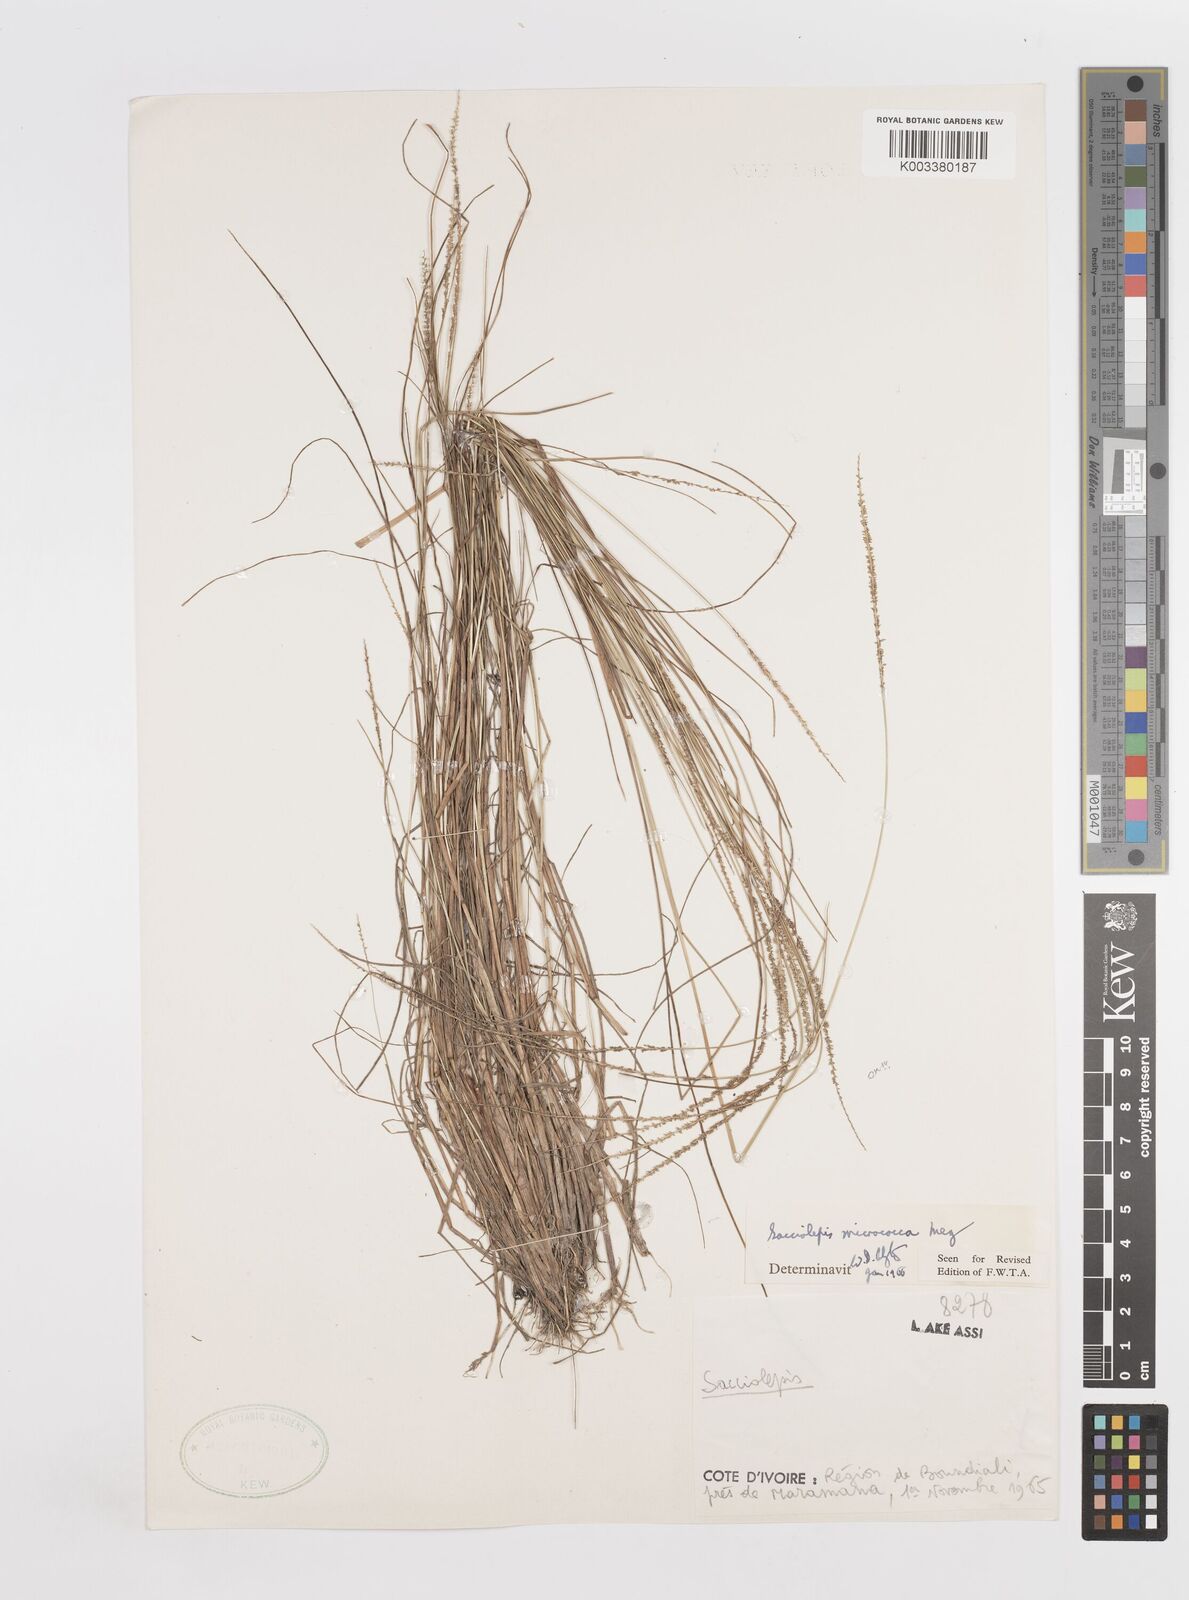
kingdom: Plantae
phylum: Tracheophyta
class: Liliopsida
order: Poales
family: Poaceae
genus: Sacciolepis
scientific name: Sacciolepis micrococca
